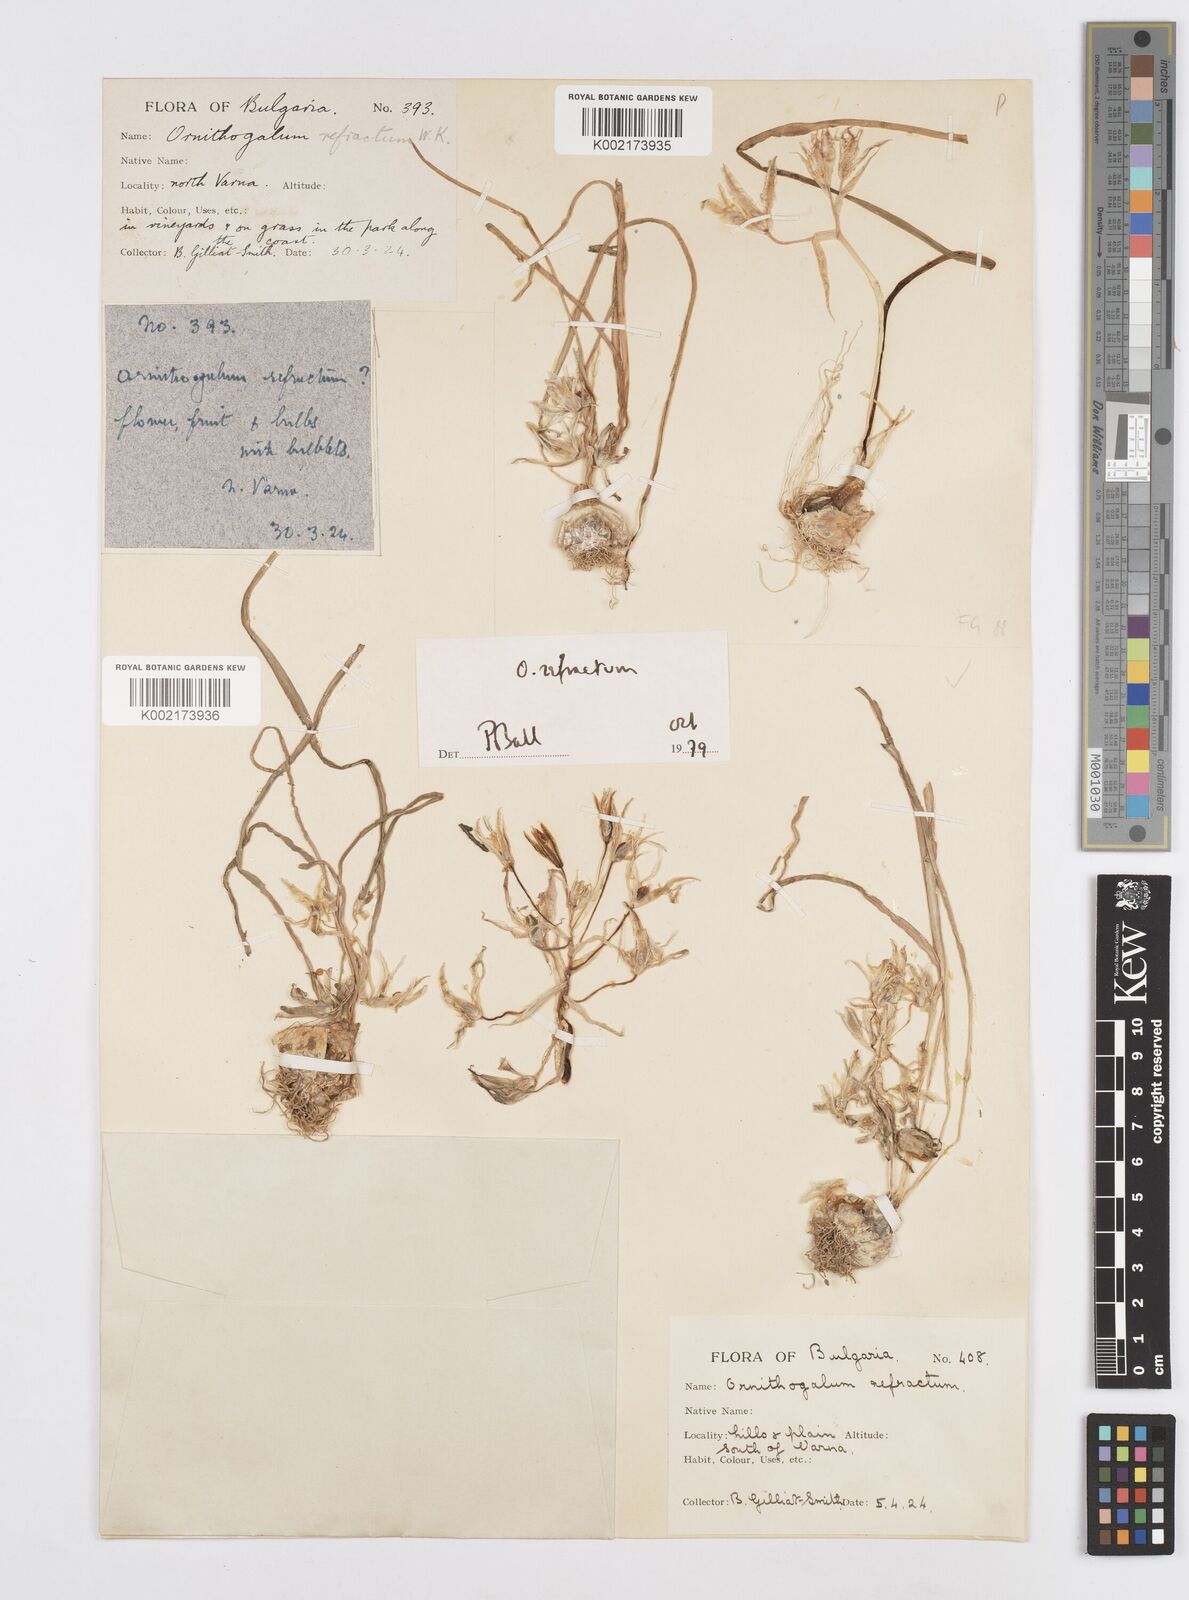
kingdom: Plantae
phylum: Tracheophyta
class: Liliopsida
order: Asparagales
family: Asparagaceae
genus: Ornithogalum
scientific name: Ornithogalum refractum
